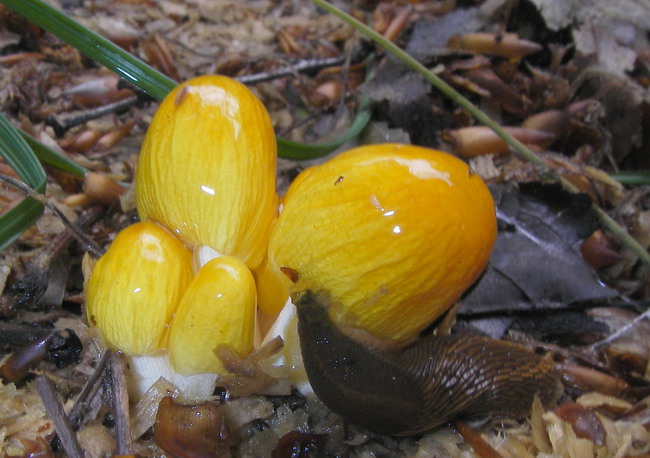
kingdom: Fungi
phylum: Basidiomycota
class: Agaricomycetes
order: Agaricales
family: Bolbitiaceae
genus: Bolbitius
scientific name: Bolbitius titubans
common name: almindelig gulhat
